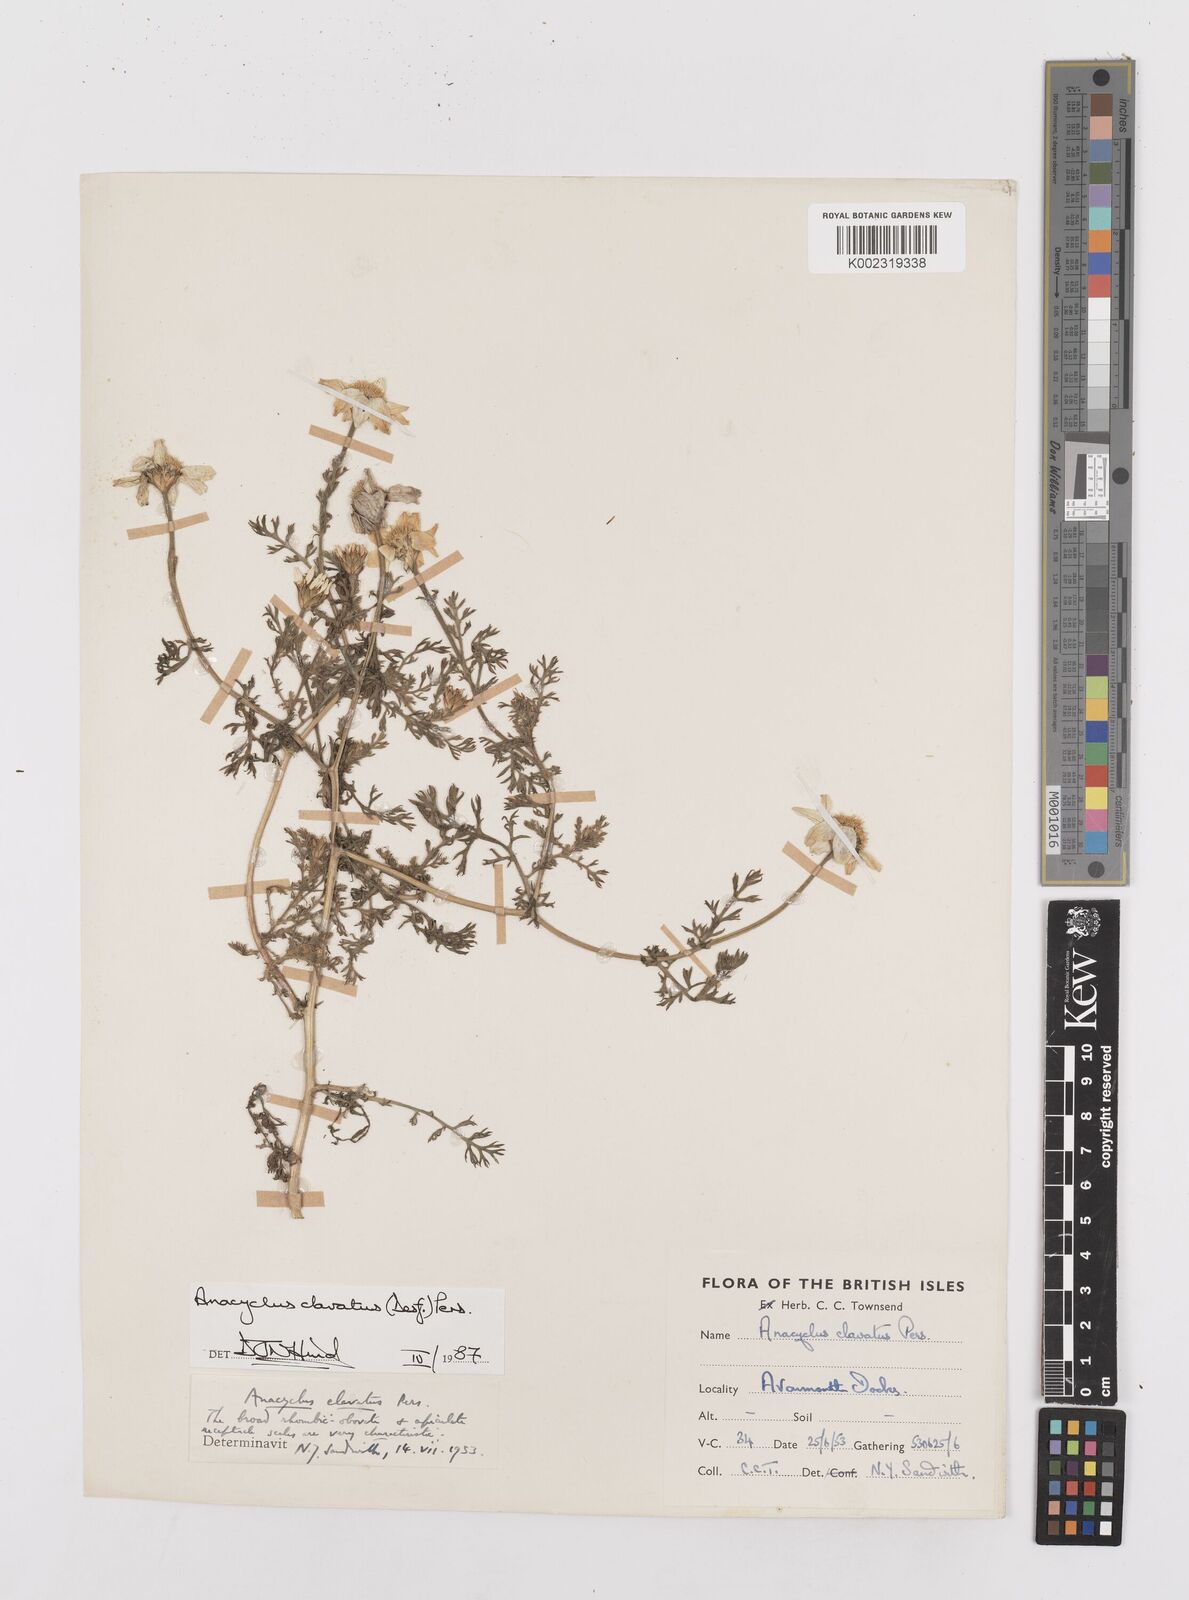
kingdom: Plantae
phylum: Tracheophyta
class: Magnoliopsida
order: Asterales
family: Asteraceae
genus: Anacyclus
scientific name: Anacyclus clavatus
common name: Whitebuttons
